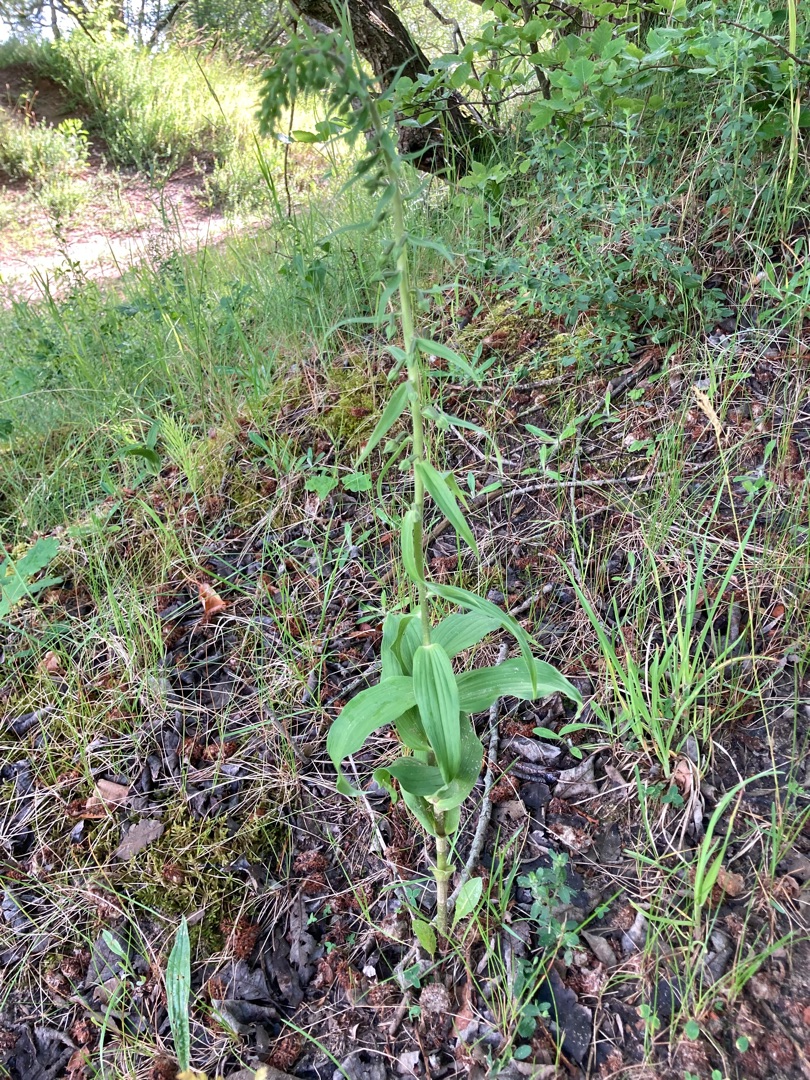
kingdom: Plantae
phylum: Tracheophyta
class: Liliopsida
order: Asparagales
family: Orchidaceae
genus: Epipactis
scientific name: Epipactis helleborine
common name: Skov-hullæbe
